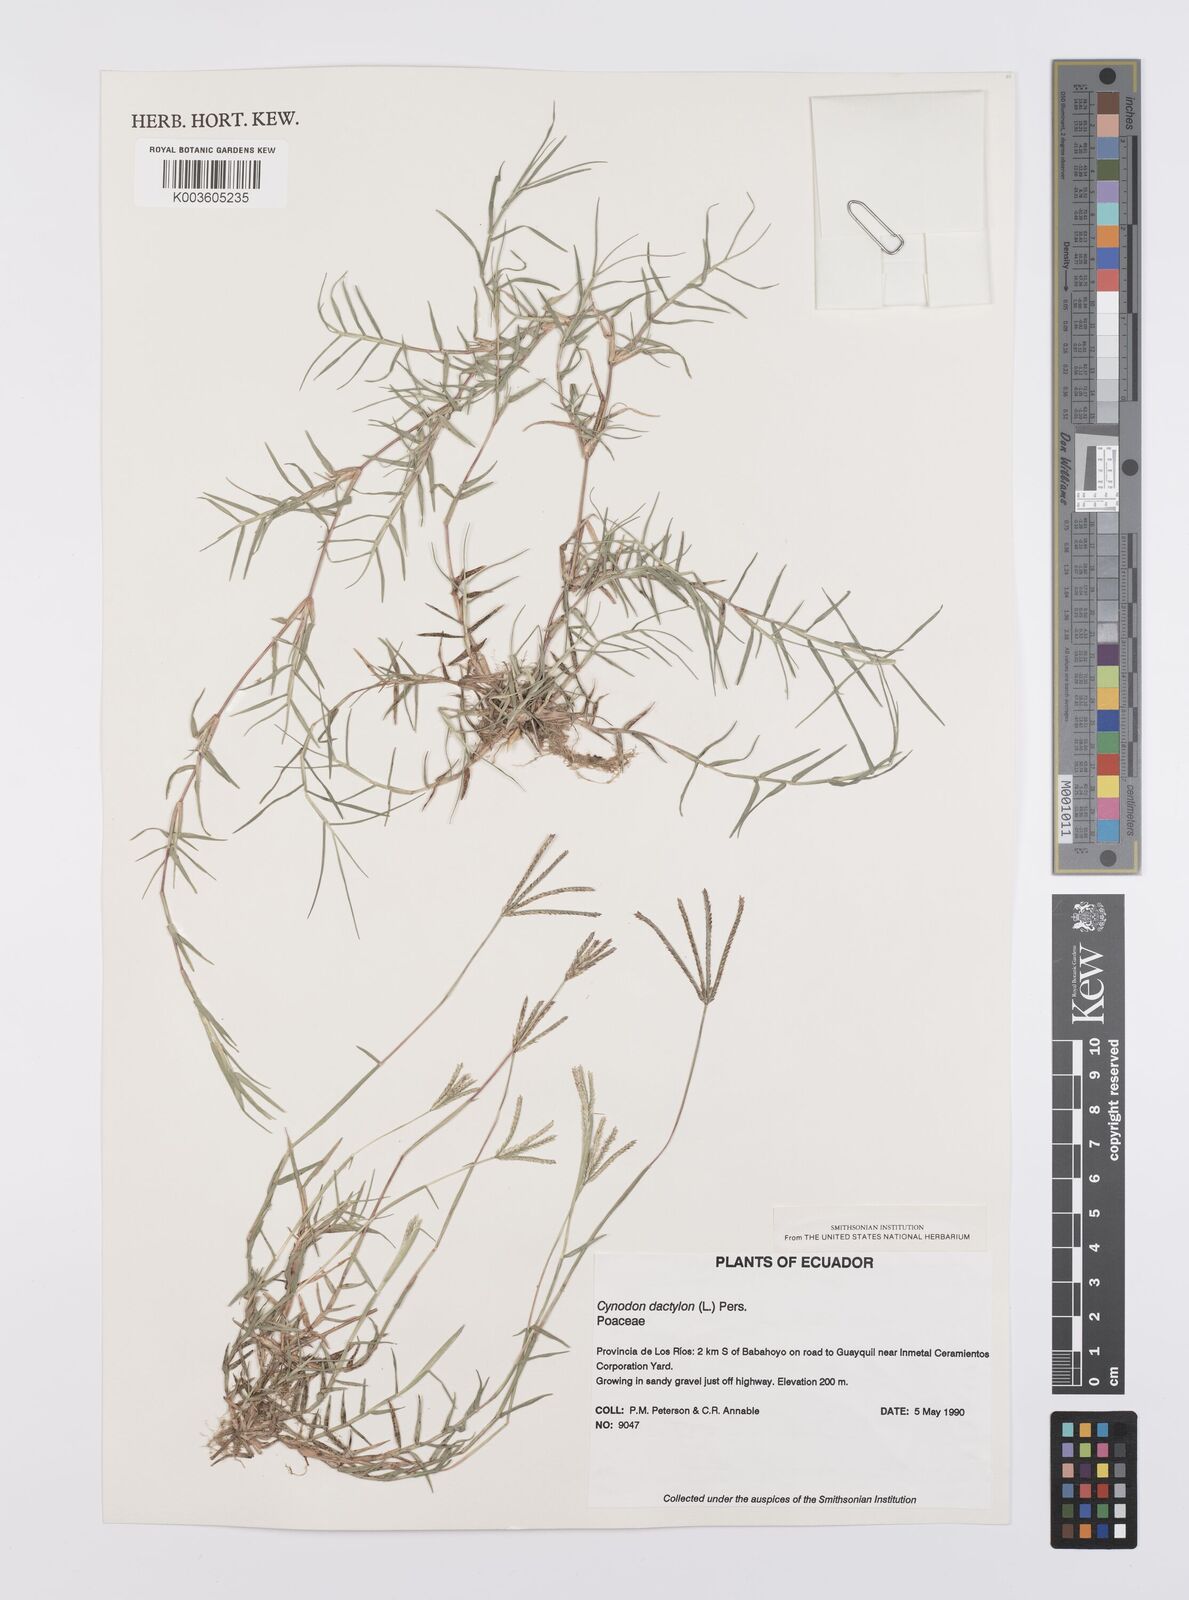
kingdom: Plantae
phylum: Tracheophyta
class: Liliopsida
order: Poales
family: Poaceae
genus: Cynodon
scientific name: Cynodon dactylon
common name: Bermuda grass
